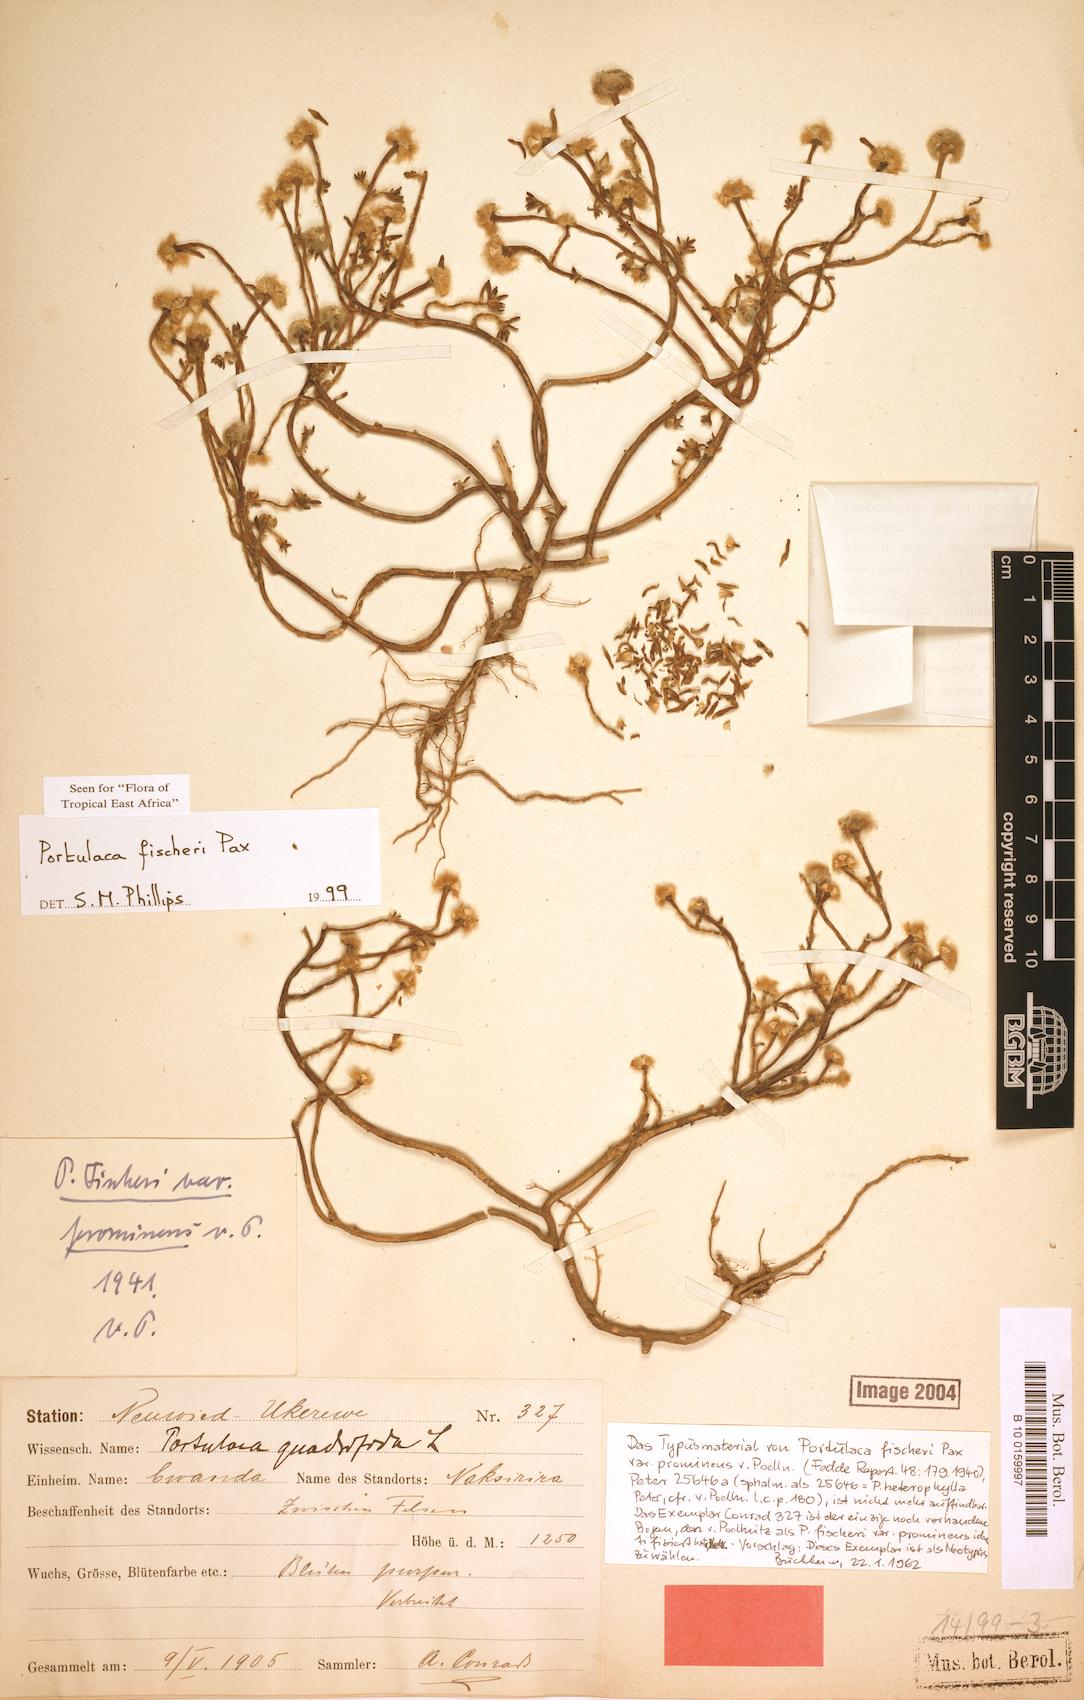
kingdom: Plantae
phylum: Tracheophyta
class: Magnoliopsida
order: Caryophyllales
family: Portulacaceae
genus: Portulaca
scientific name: Portulaca fischeri
